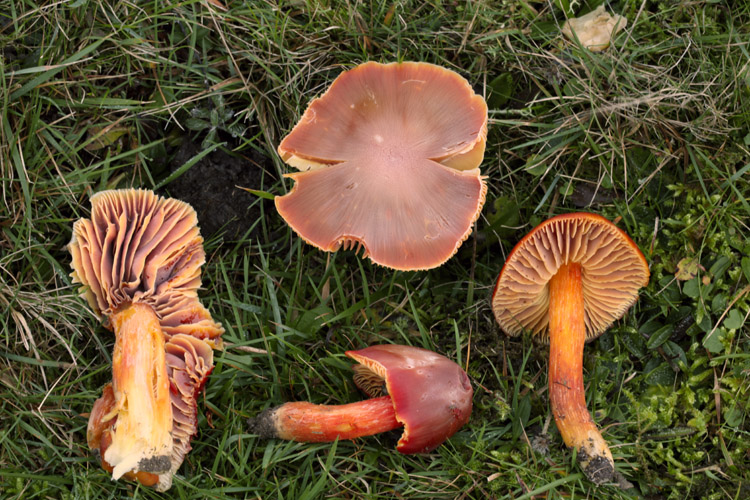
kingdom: Fungi
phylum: Basidiomycota
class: Agaricomycetes
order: Agaricales
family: Hygrophoraceae
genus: Hygrocybe
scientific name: Hygrocybe punicea
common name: skarlagen-vokshat
